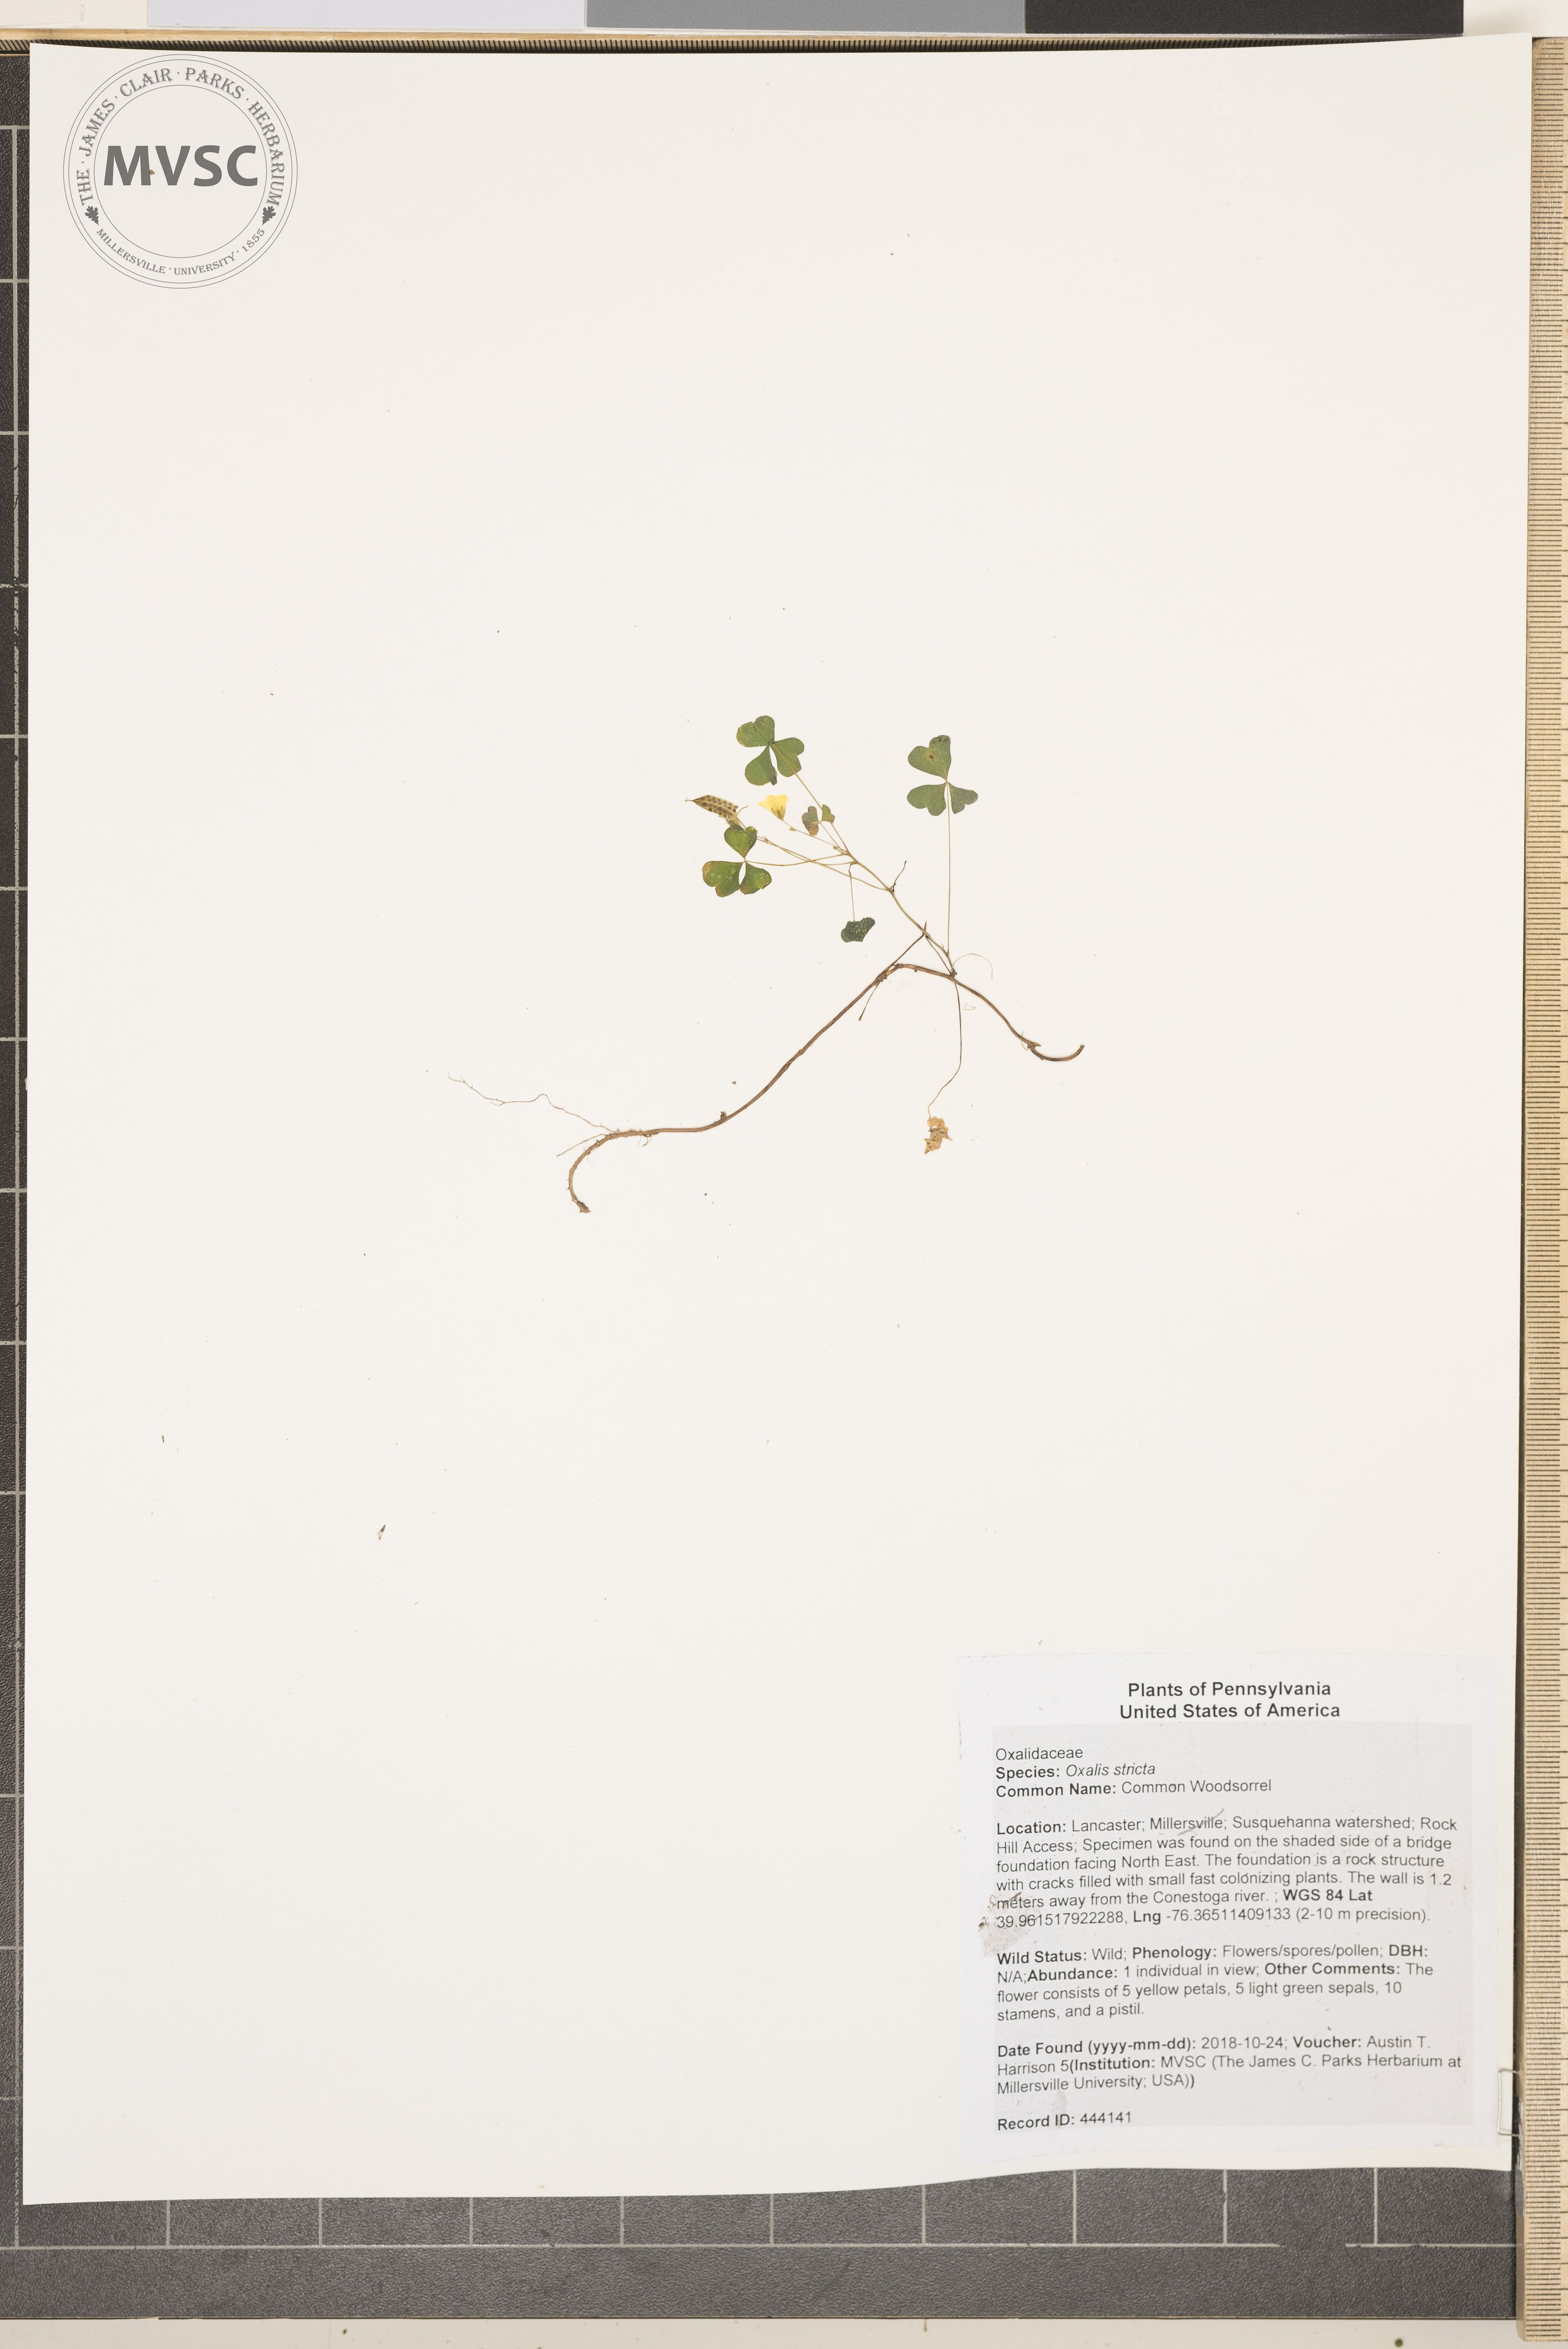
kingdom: Plantae
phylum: Tracheophyta
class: Magnoliopsida
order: Oxalidales
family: Oxalidaceae
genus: Oxalis
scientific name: Oxalis stricta
